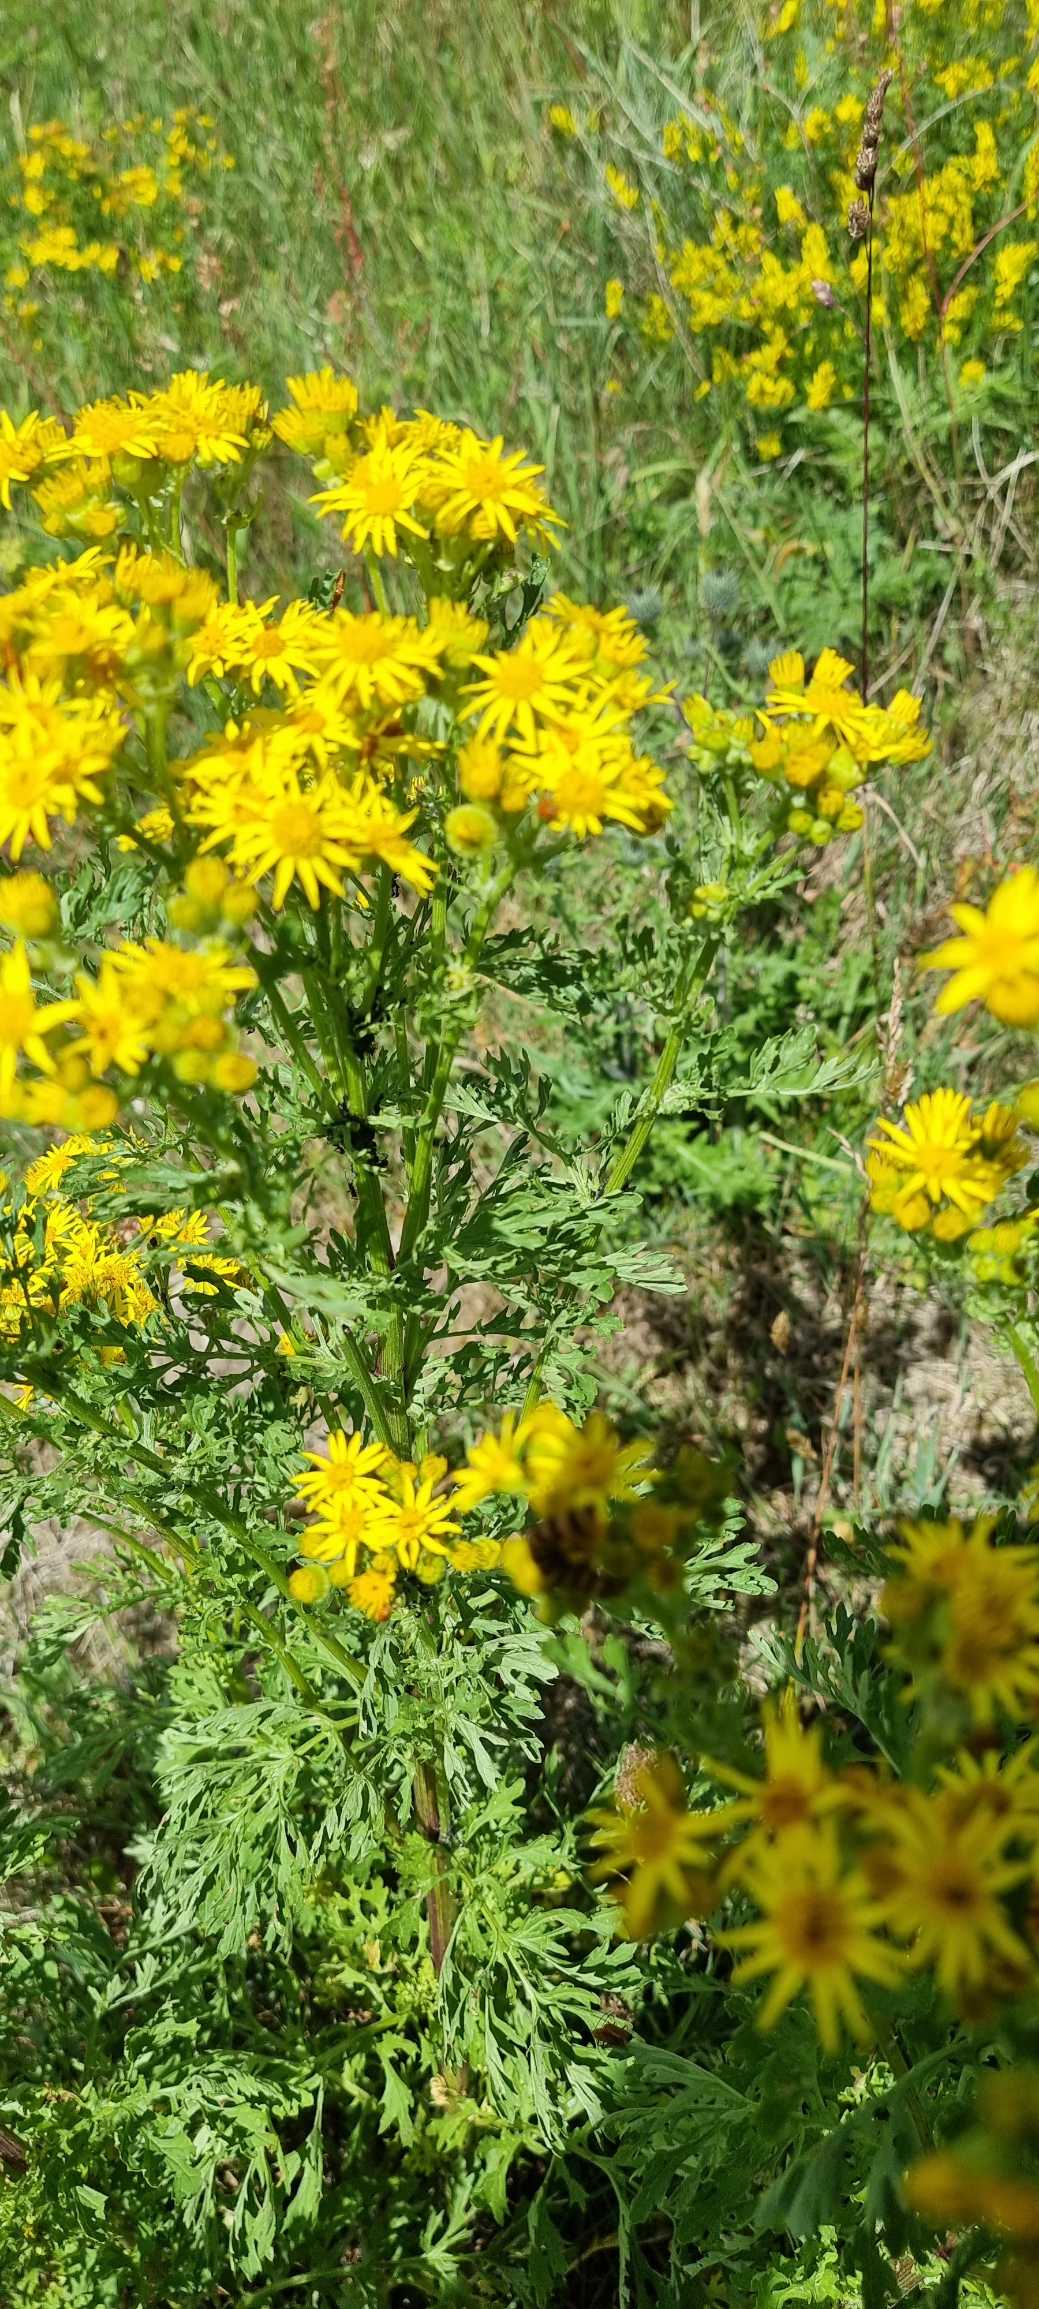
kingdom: Plantae
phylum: Tracheophyta
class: Magnoliopsida
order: Asterales
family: Asteraceae
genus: Jacobaea
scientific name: Jacobaea vulgaris
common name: Eng-brandbæger
